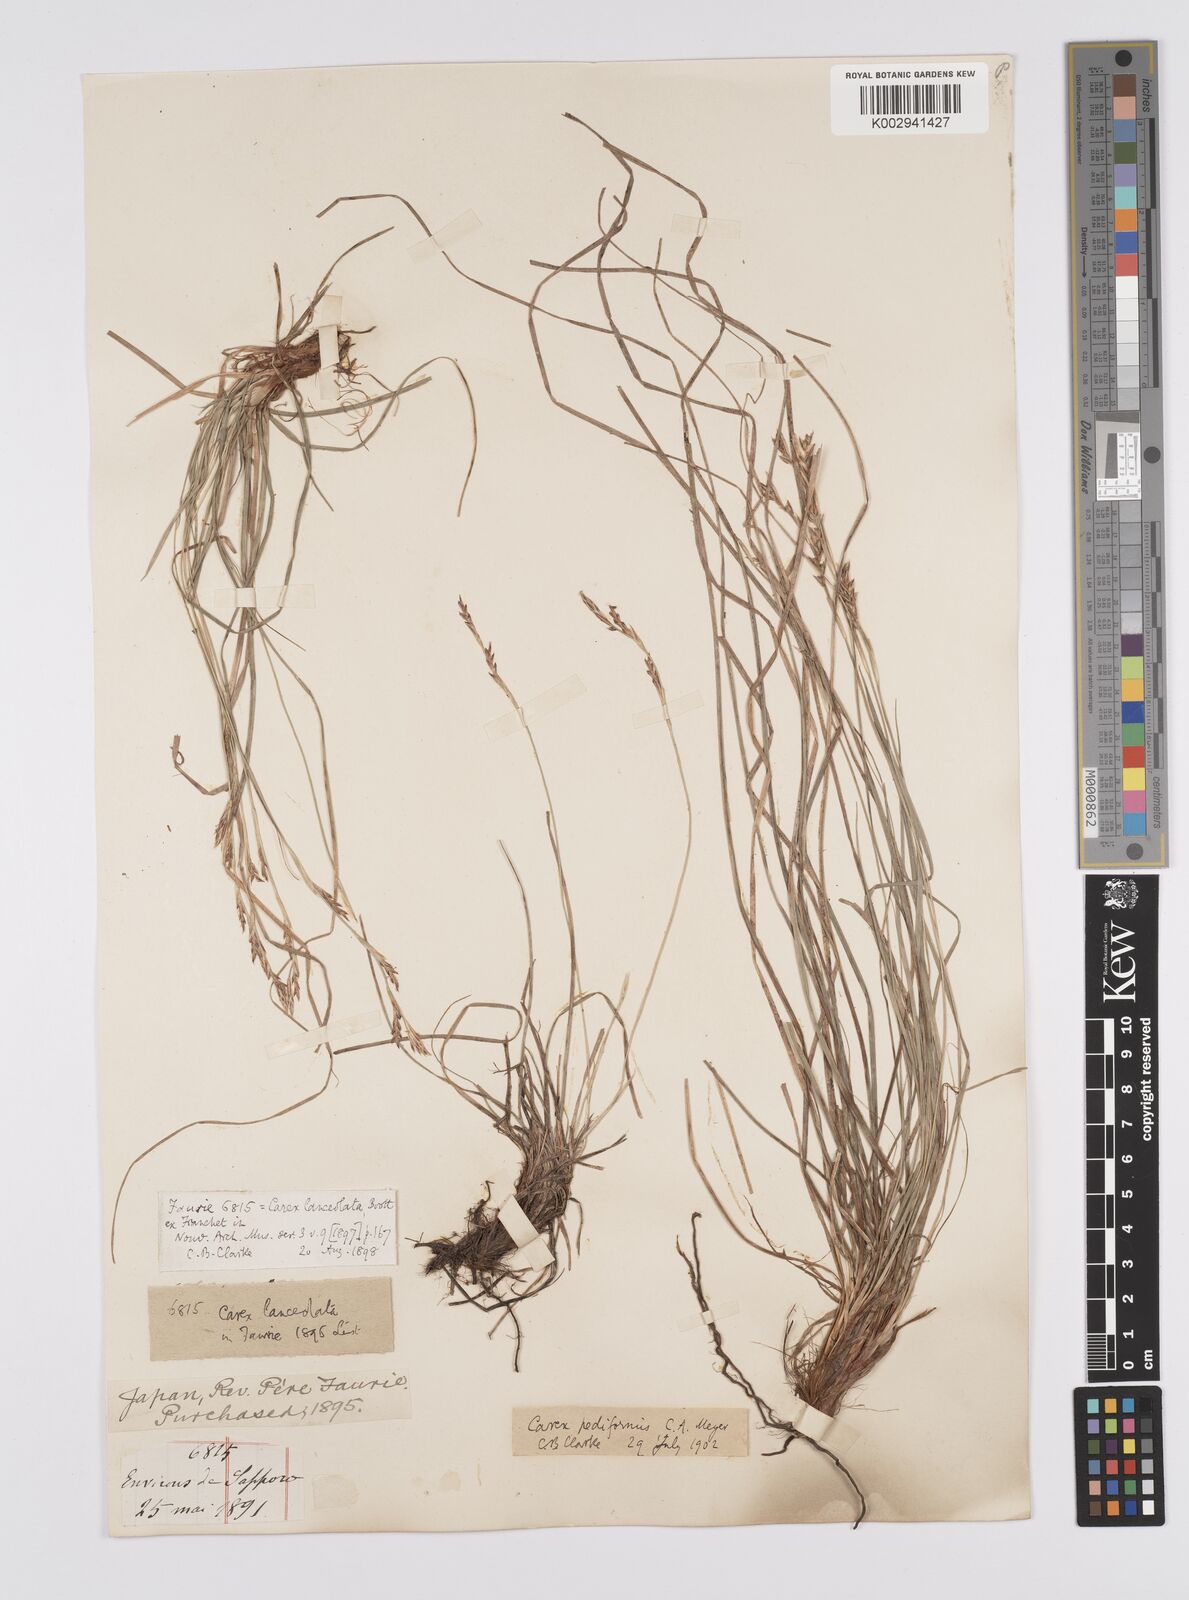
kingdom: Plantae
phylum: Tracheophyta
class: Liliopsida
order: Poales
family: Cyperaceae
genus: Carex
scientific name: Carex lanceolata
